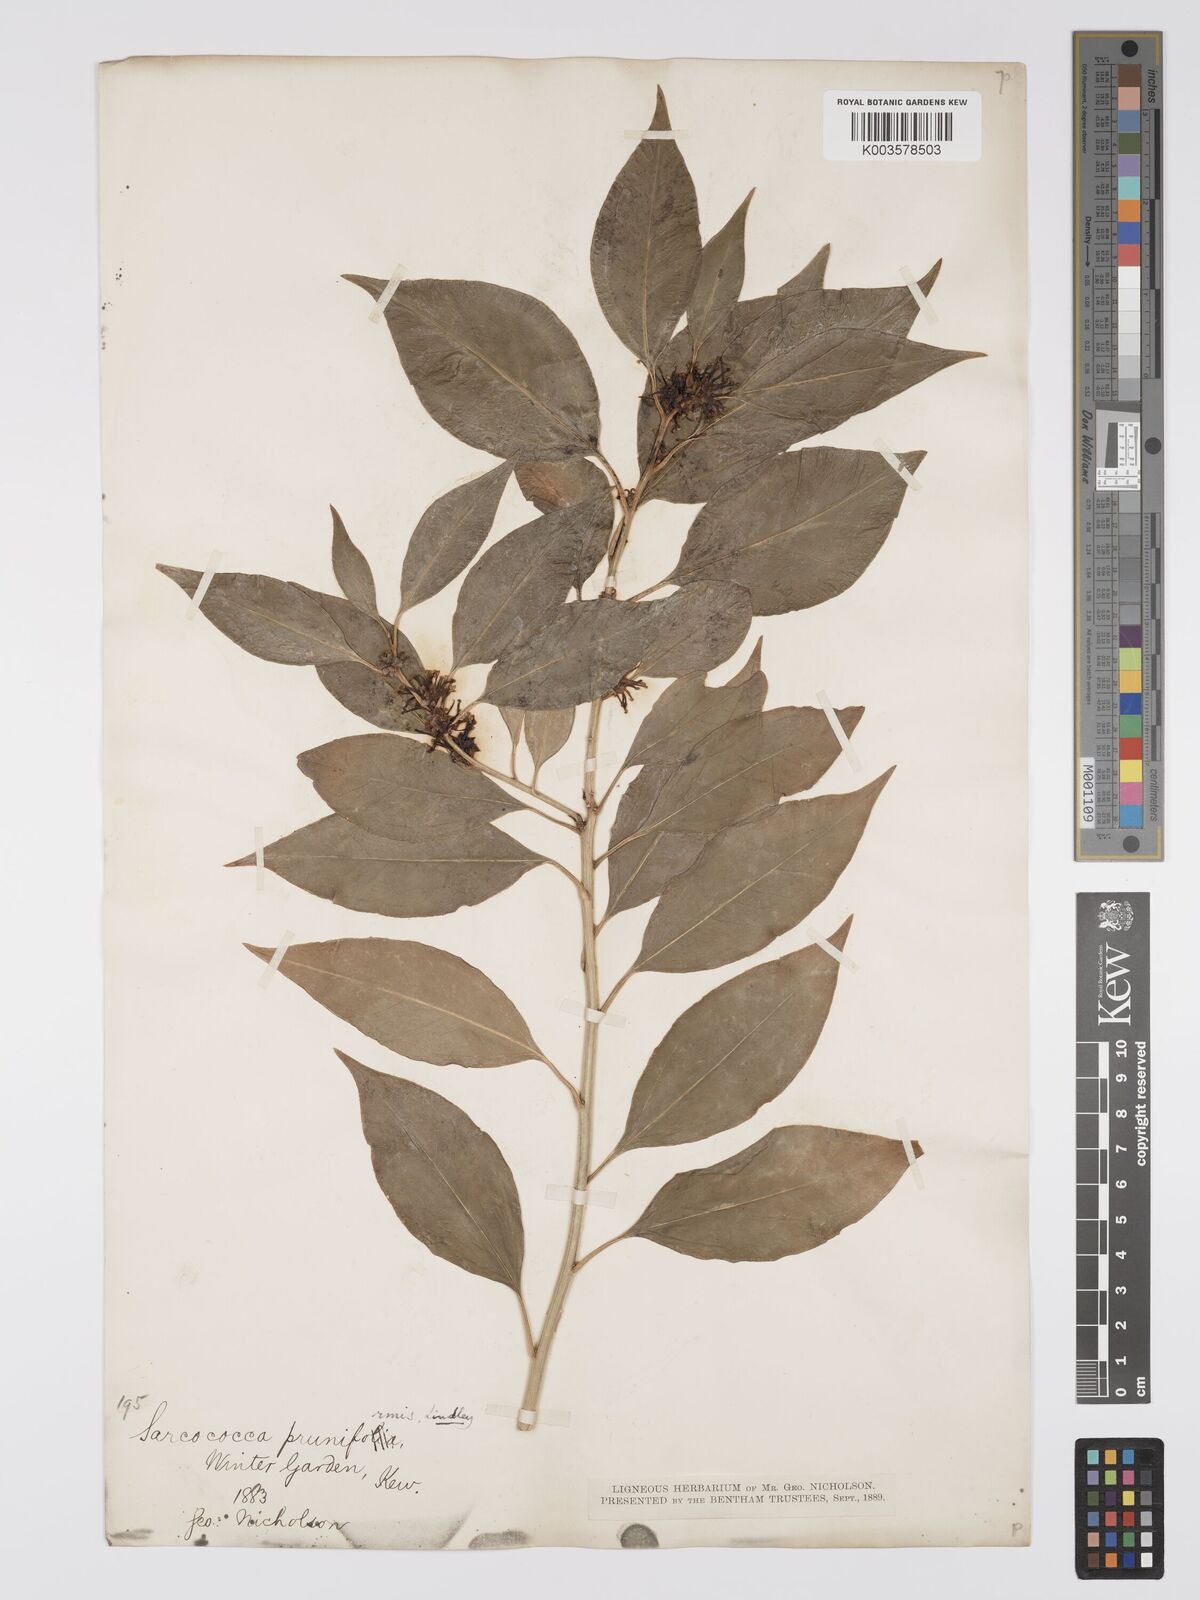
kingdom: Plantae
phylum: Tracheophyta
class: Magnoliopsida
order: Buxales
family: Buxaceae
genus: Sarcococca
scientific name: Sarcococca coriacea
